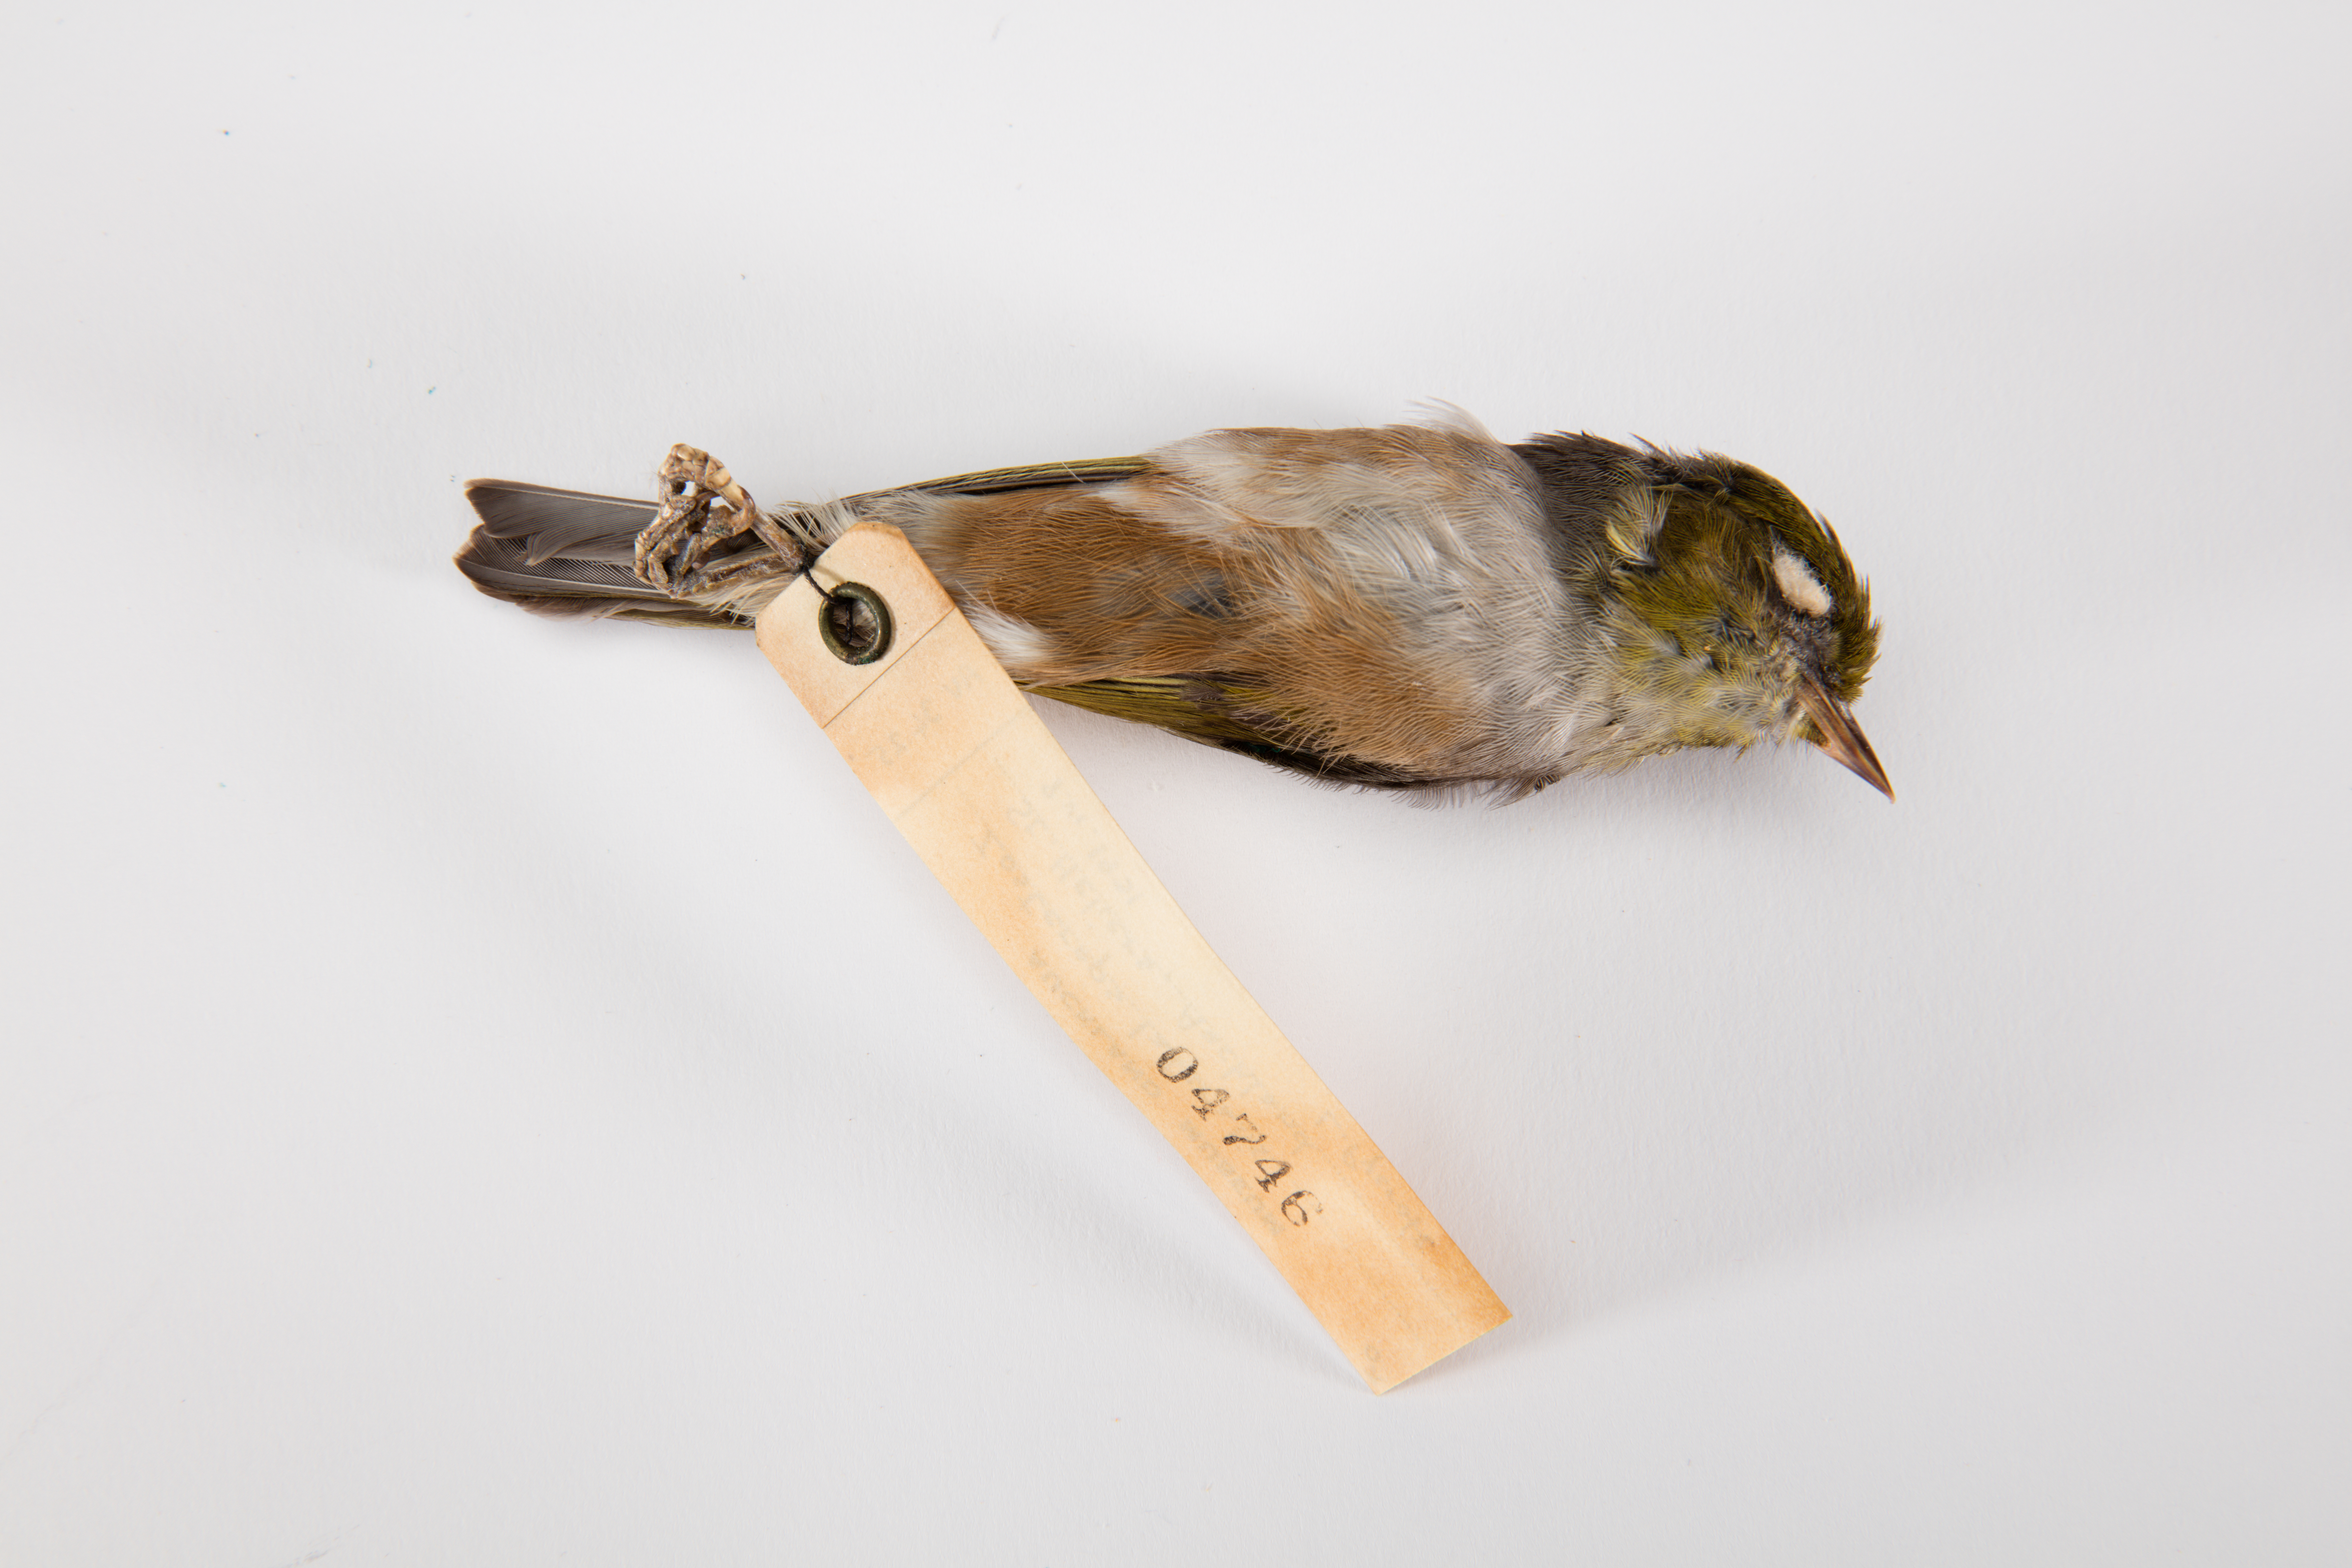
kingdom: Animalia
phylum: Chordata
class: Aves
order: Passeriformes
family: Zosteropidae
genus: Zosterops
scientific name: Zosterops lateralis
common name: Silvereye
